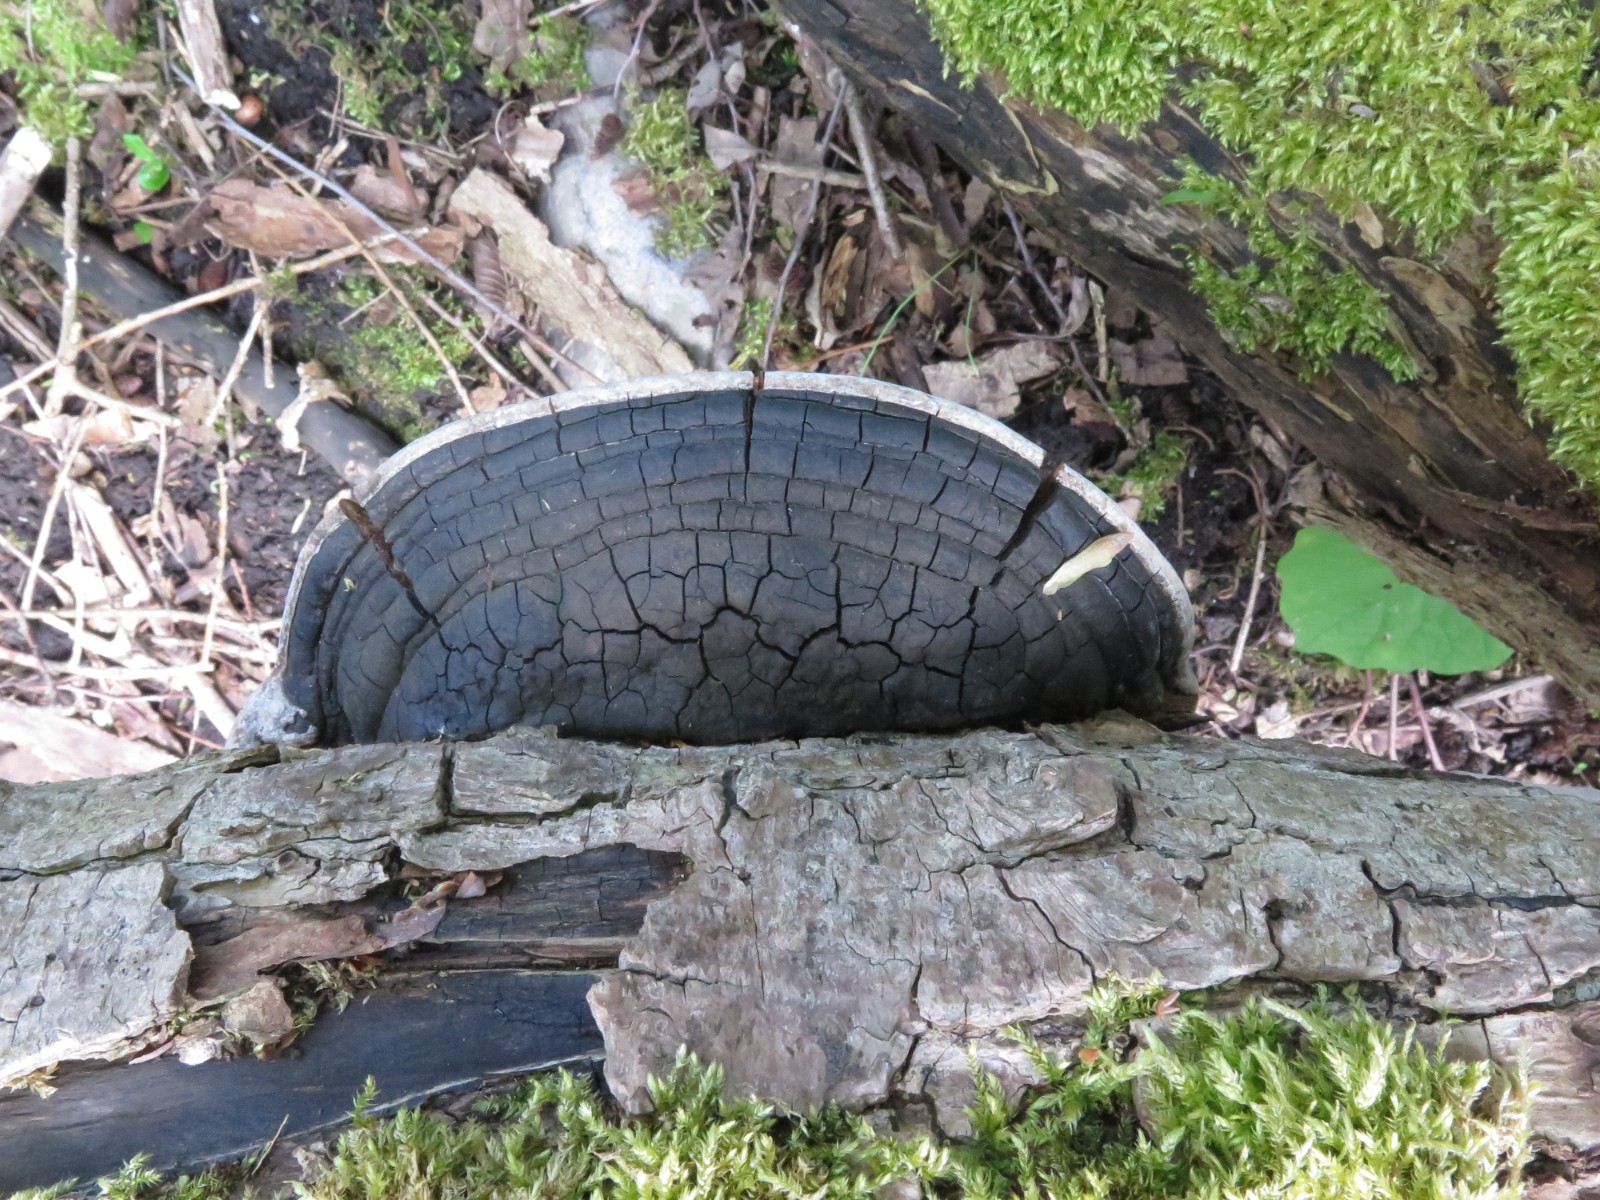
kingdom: Fungi
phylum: Basidiomycota
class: Agaricomycetes
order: Hymenochaetales
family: Hymenochaetaceae
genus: Phellinus
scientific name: Phellinus igniarius
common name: almindelig ildporesvamp
